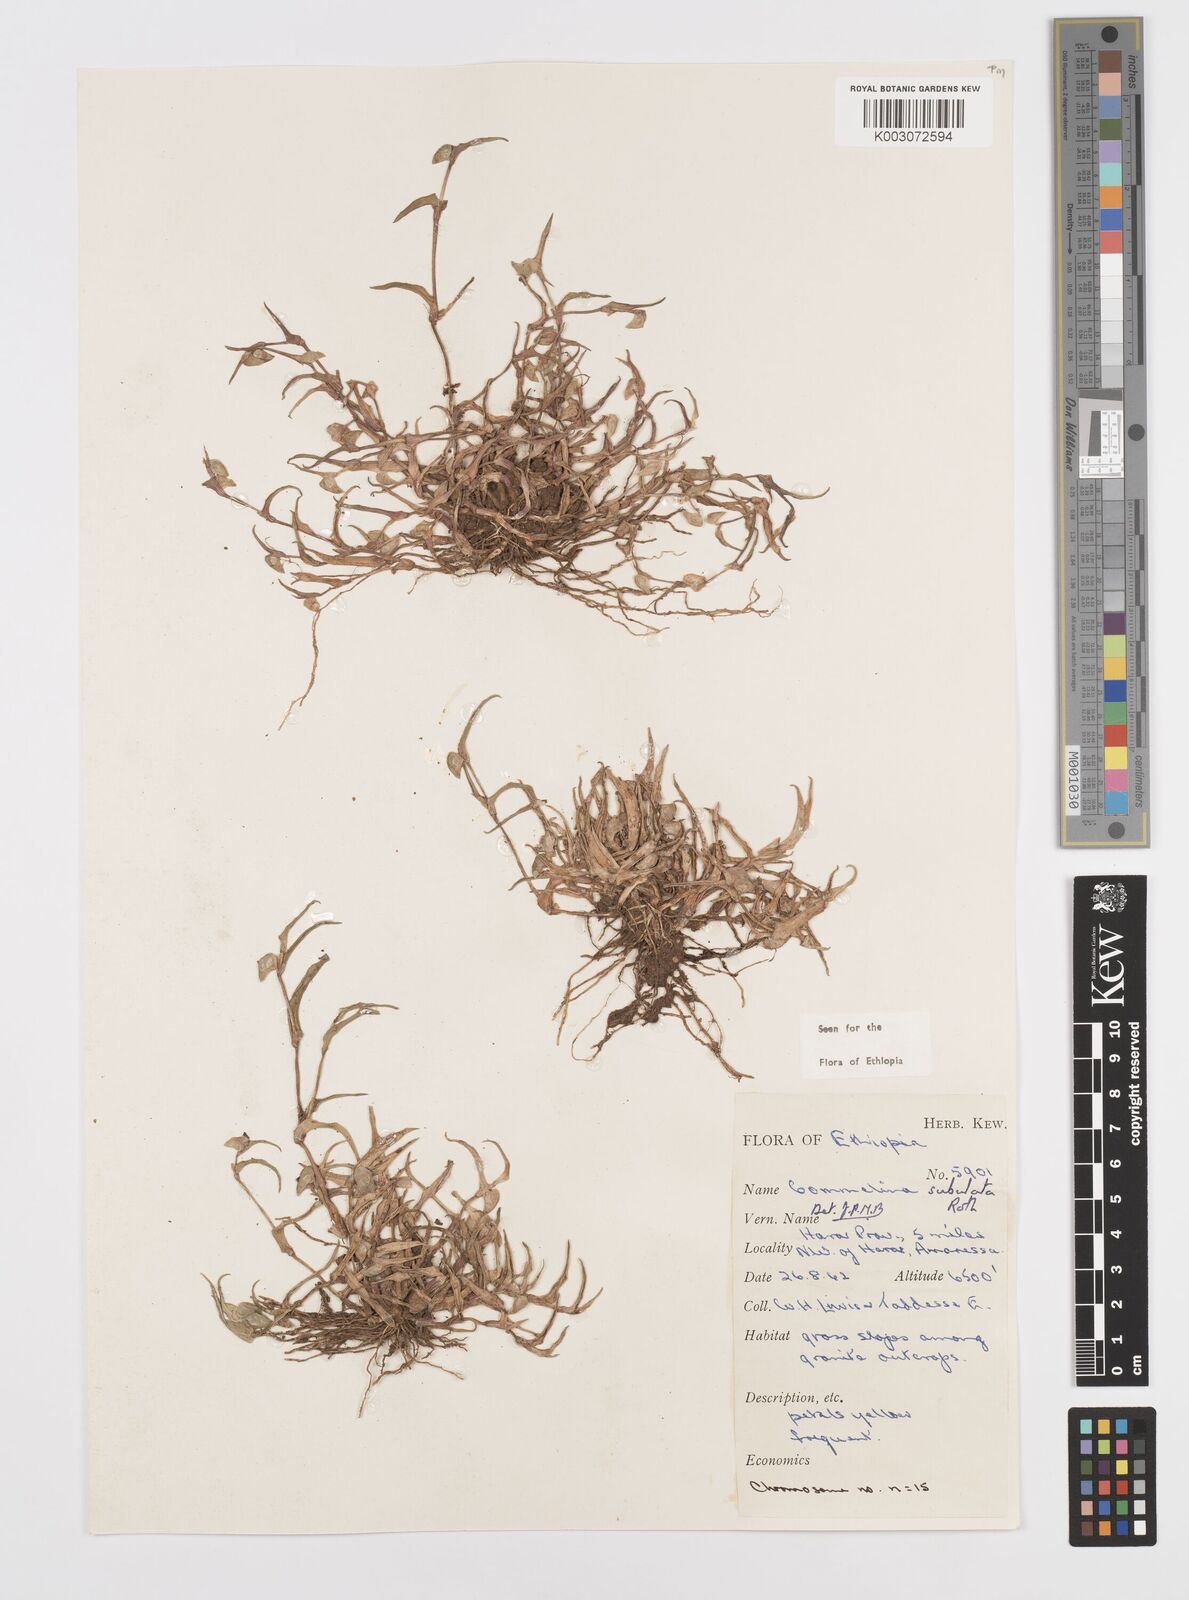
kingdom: Plantae
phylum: Tracheophyta
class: Liliopsida
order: Commelinales
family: Commelinaceae
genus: Commelina
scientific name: Commelina subulata
